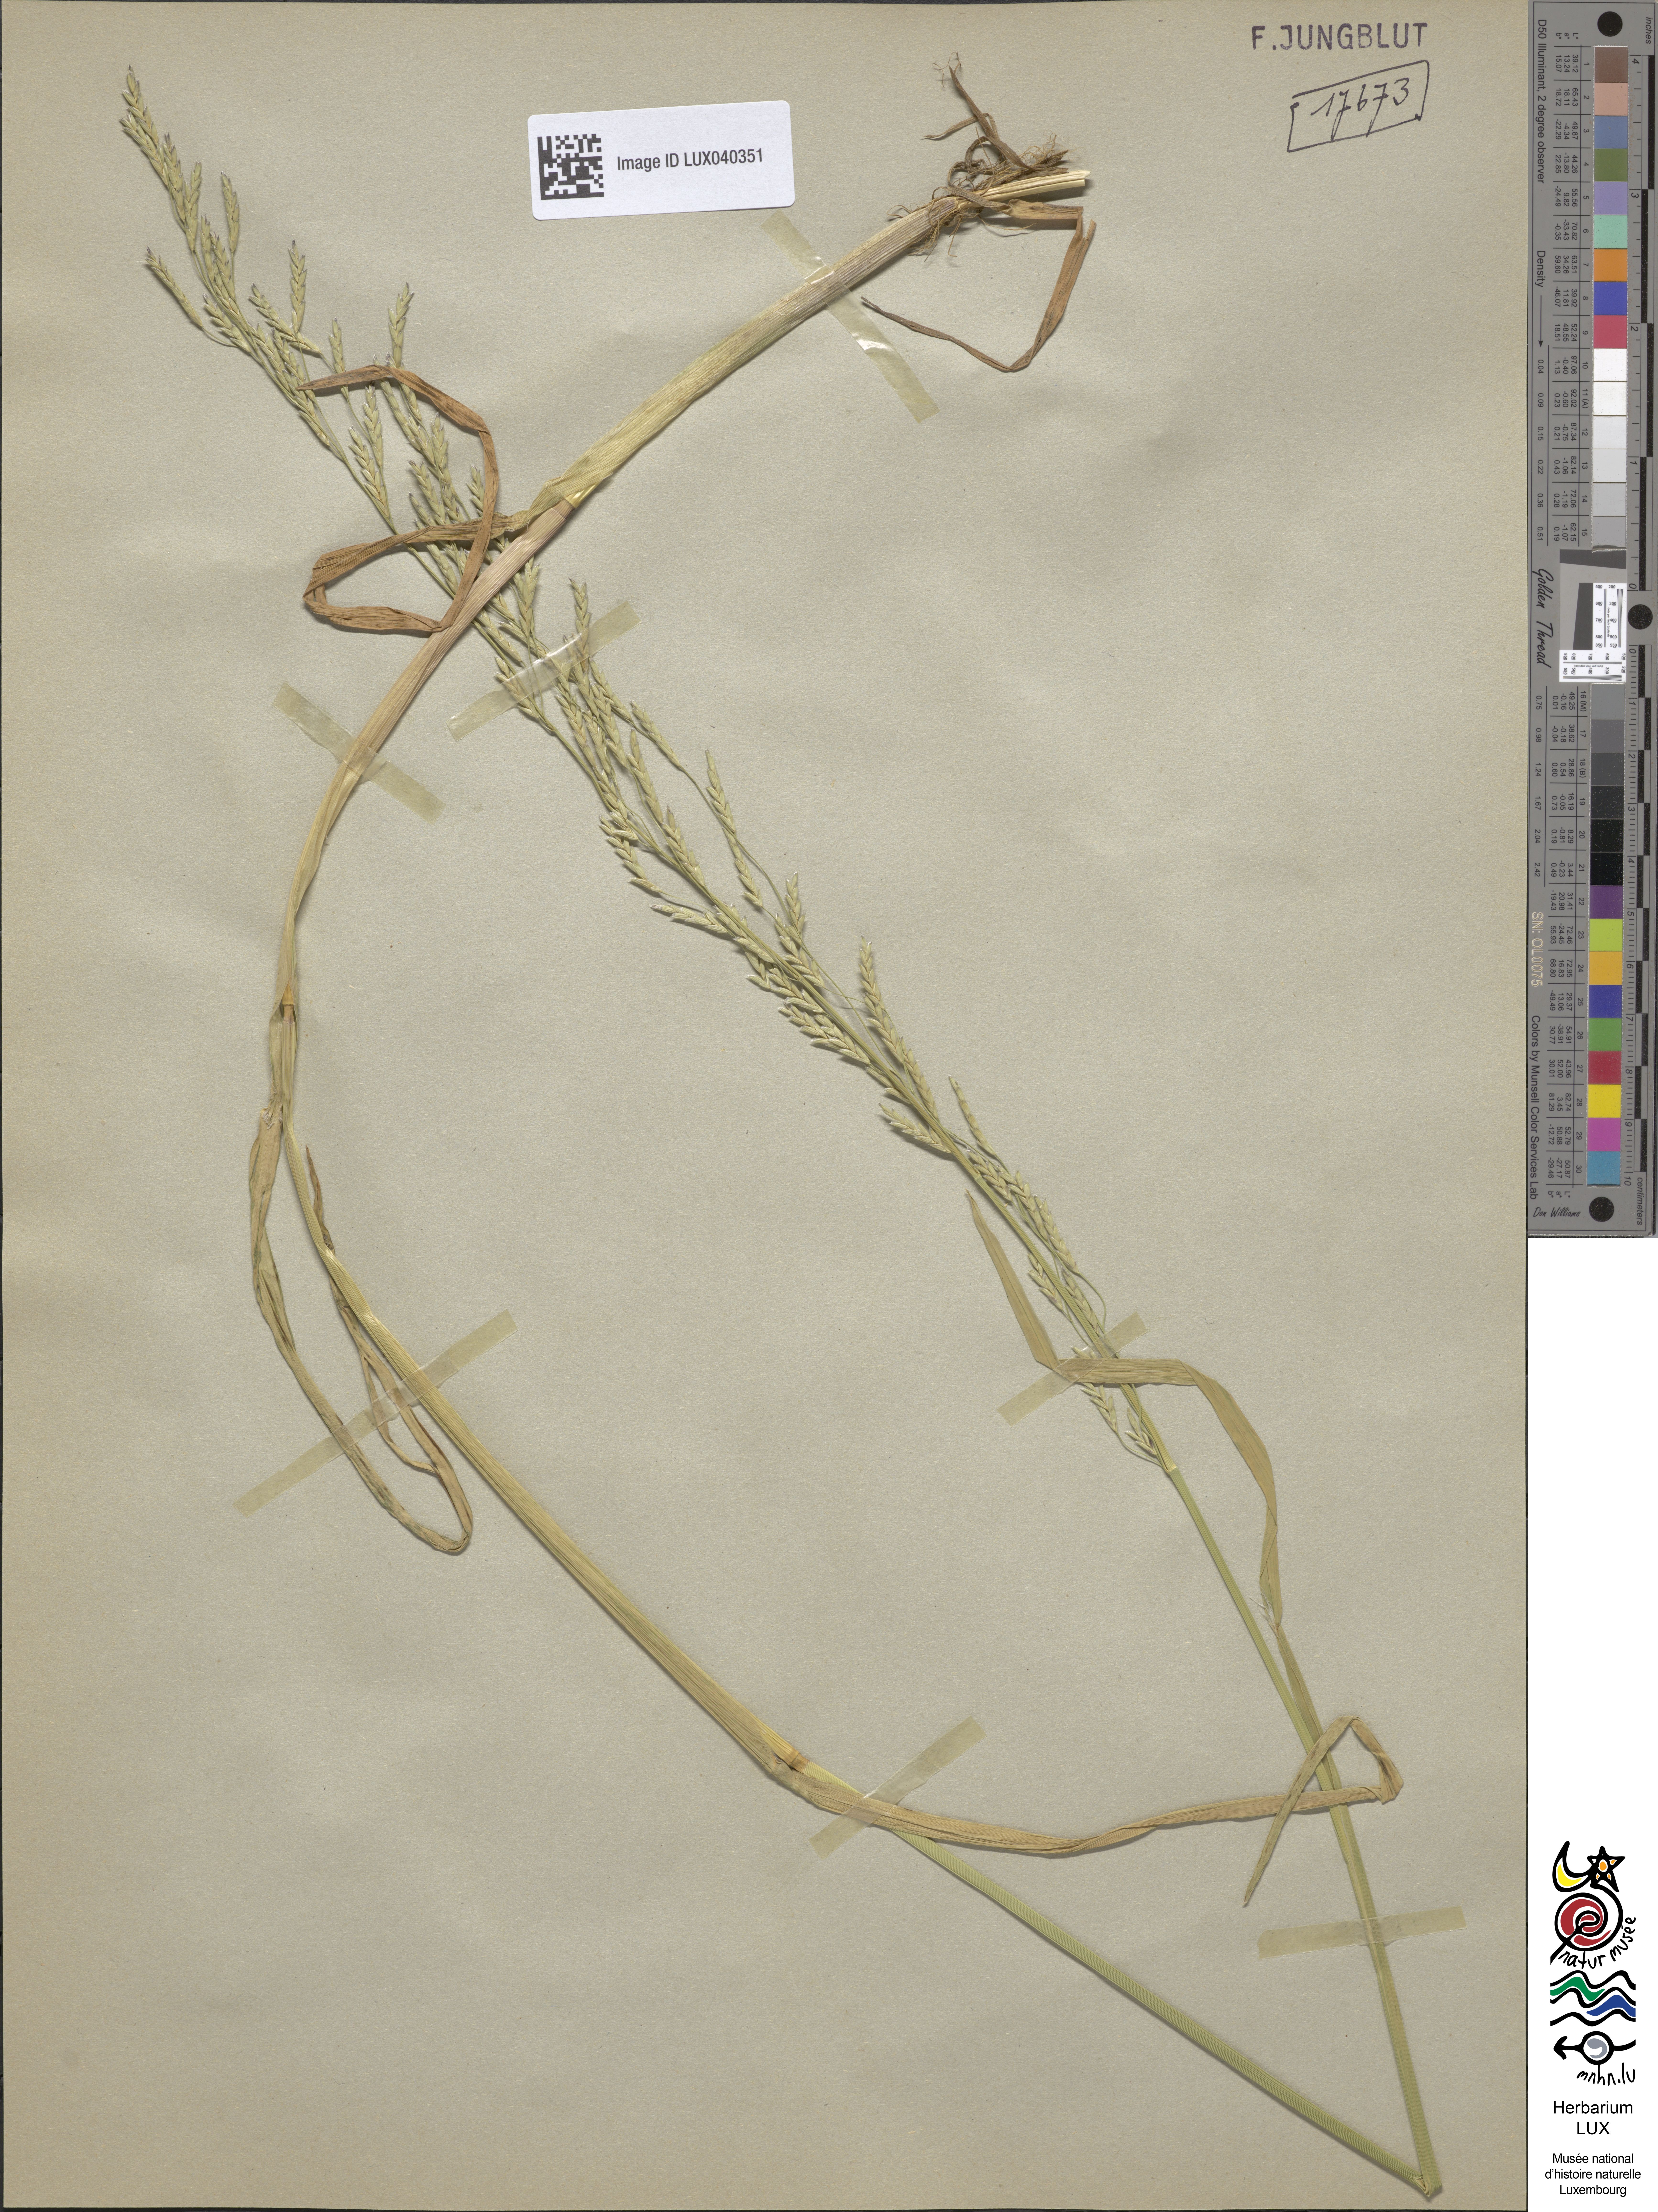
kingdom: Plantae
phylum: Tracheophyta
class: Liliopsida
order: Poales
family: Poaceae
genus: Glyceria
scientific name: Glyceria notata
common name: Plicate sweet-grass
